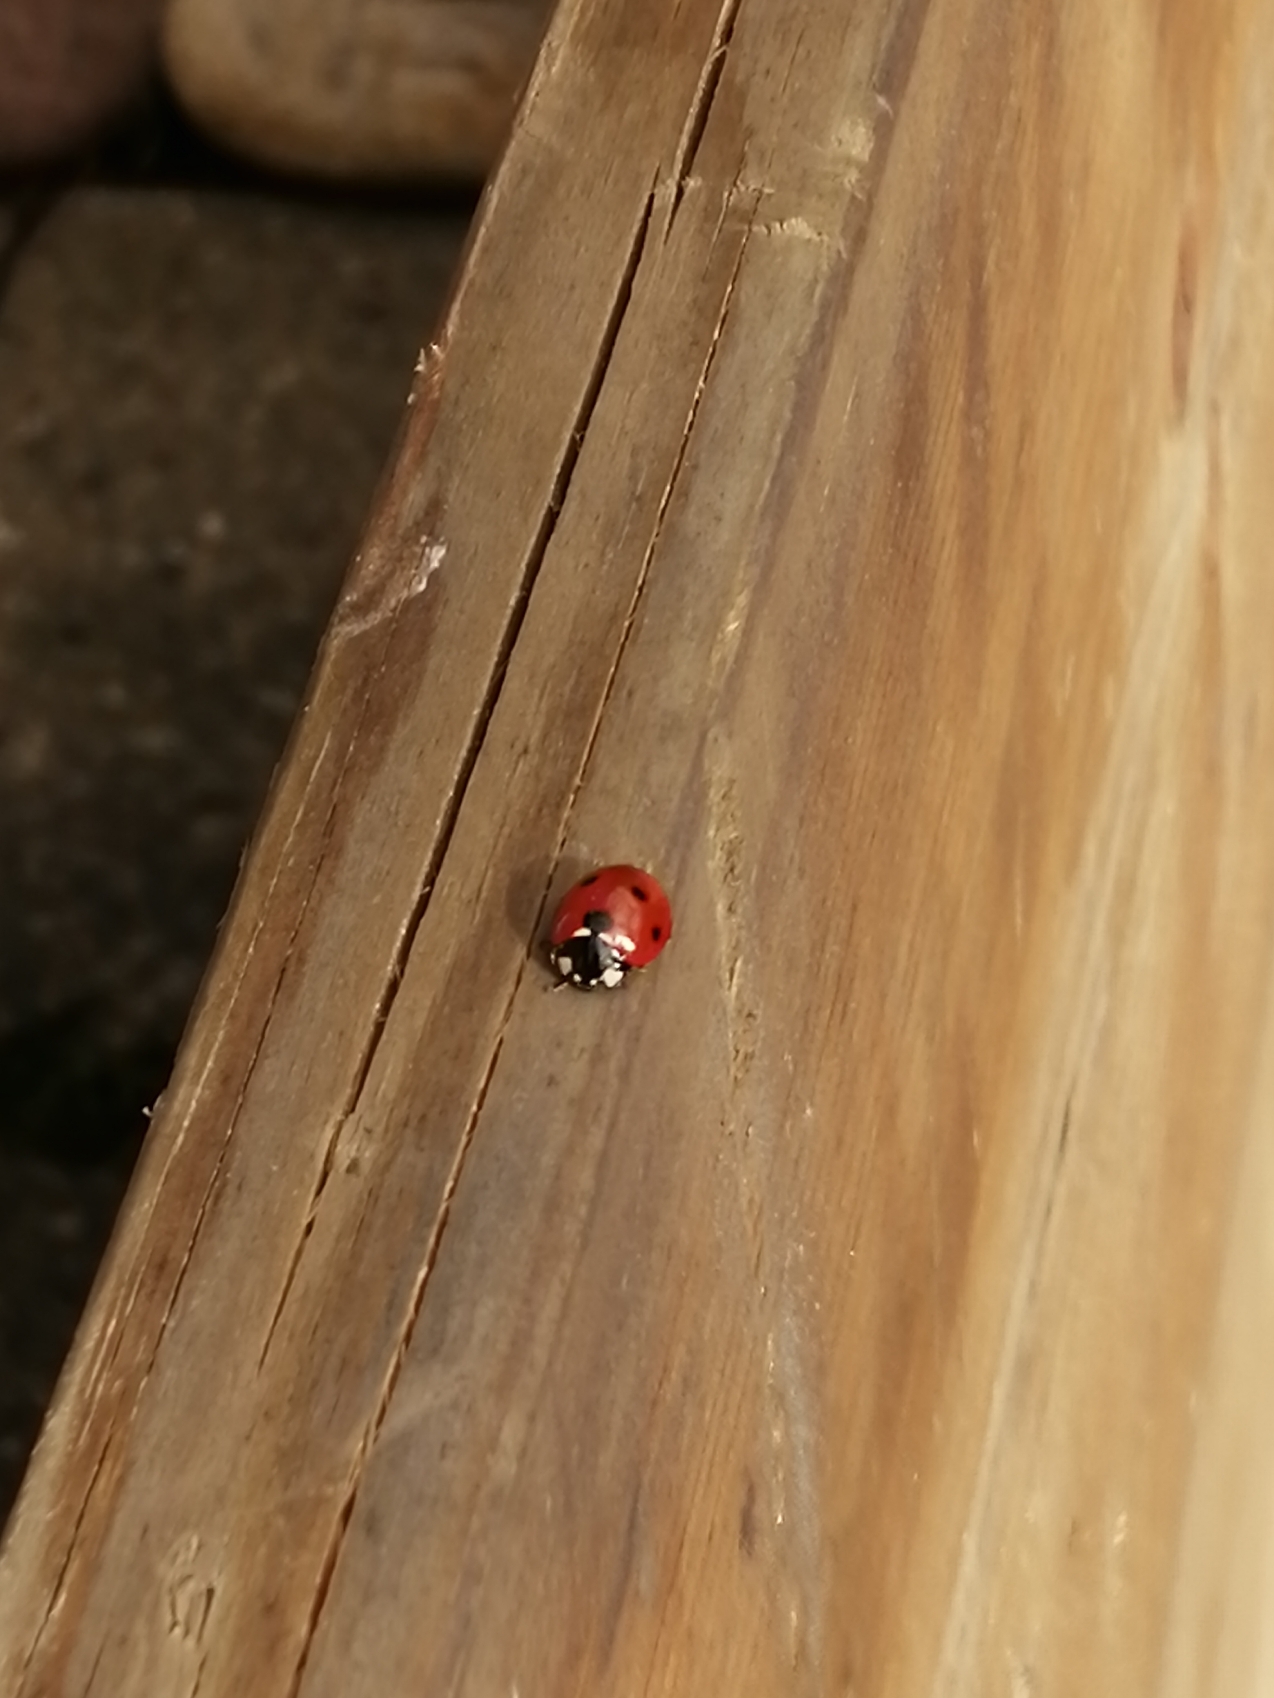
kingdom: Animalia
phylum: Arthropoda
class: Insecta
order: Coleoptera
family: Coccinellidae
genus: Coccinella
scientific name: Coccinella septempunctata
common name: Syvplettet mariehøne
